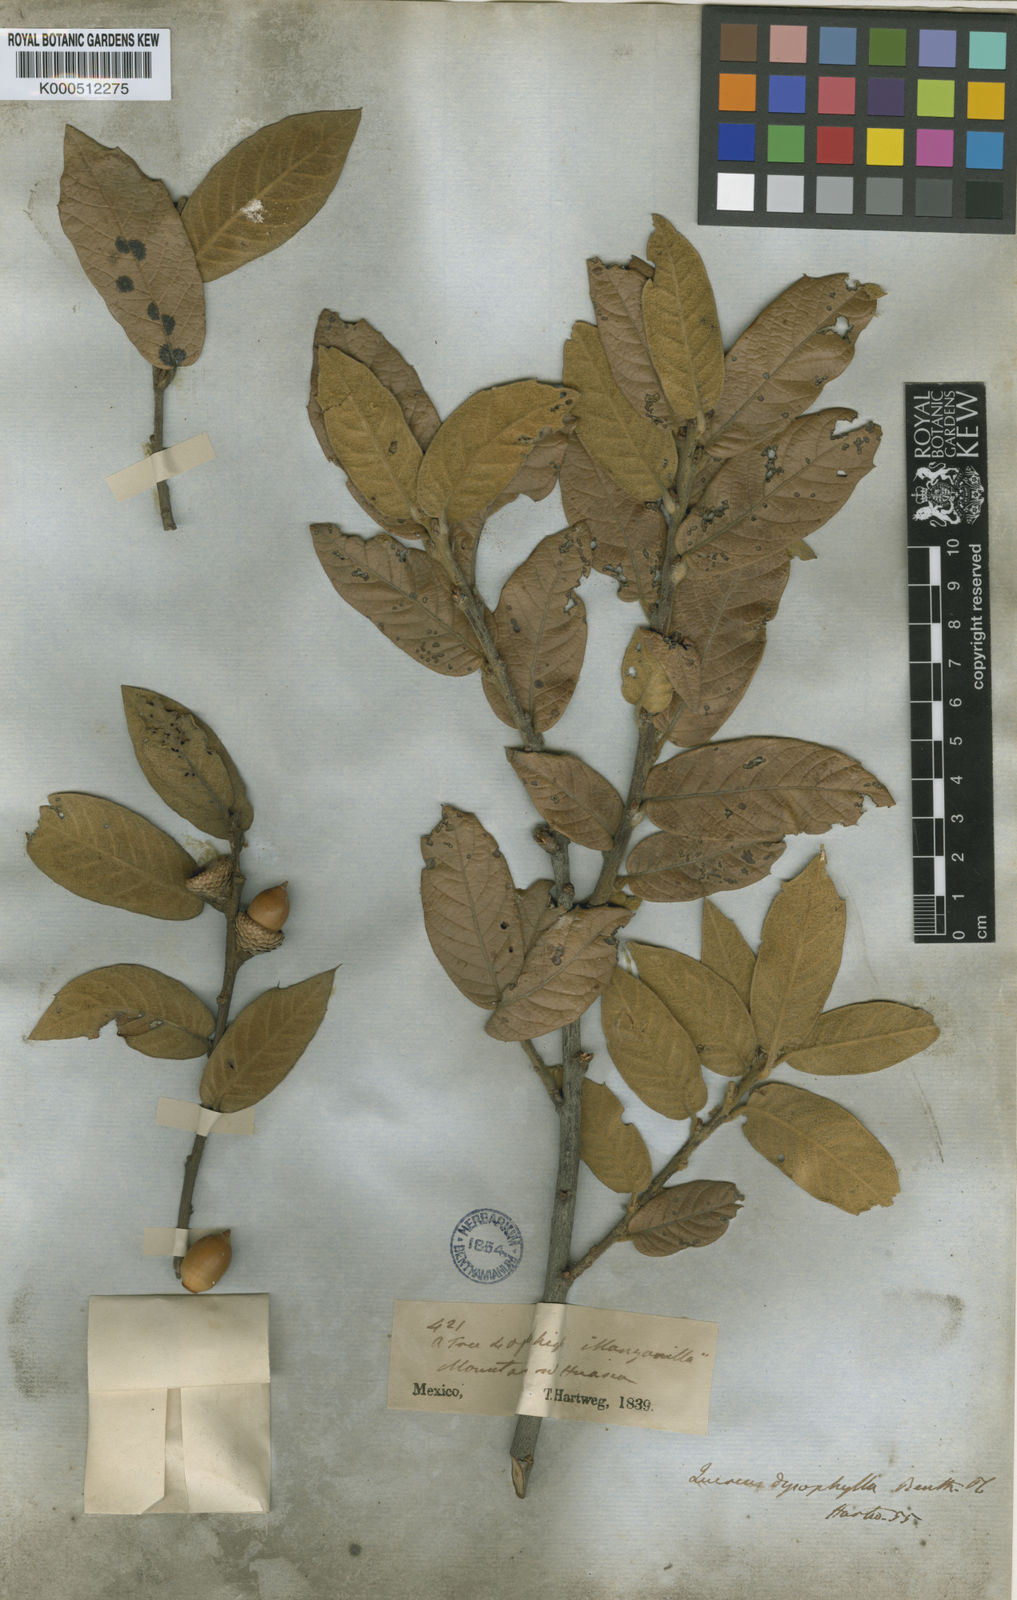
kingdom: Plantae
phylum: Tracheophyta
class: Magnoliopsida
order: Fagales
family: Fagaceae
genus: Quercus
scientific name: Quercus dysophylla
